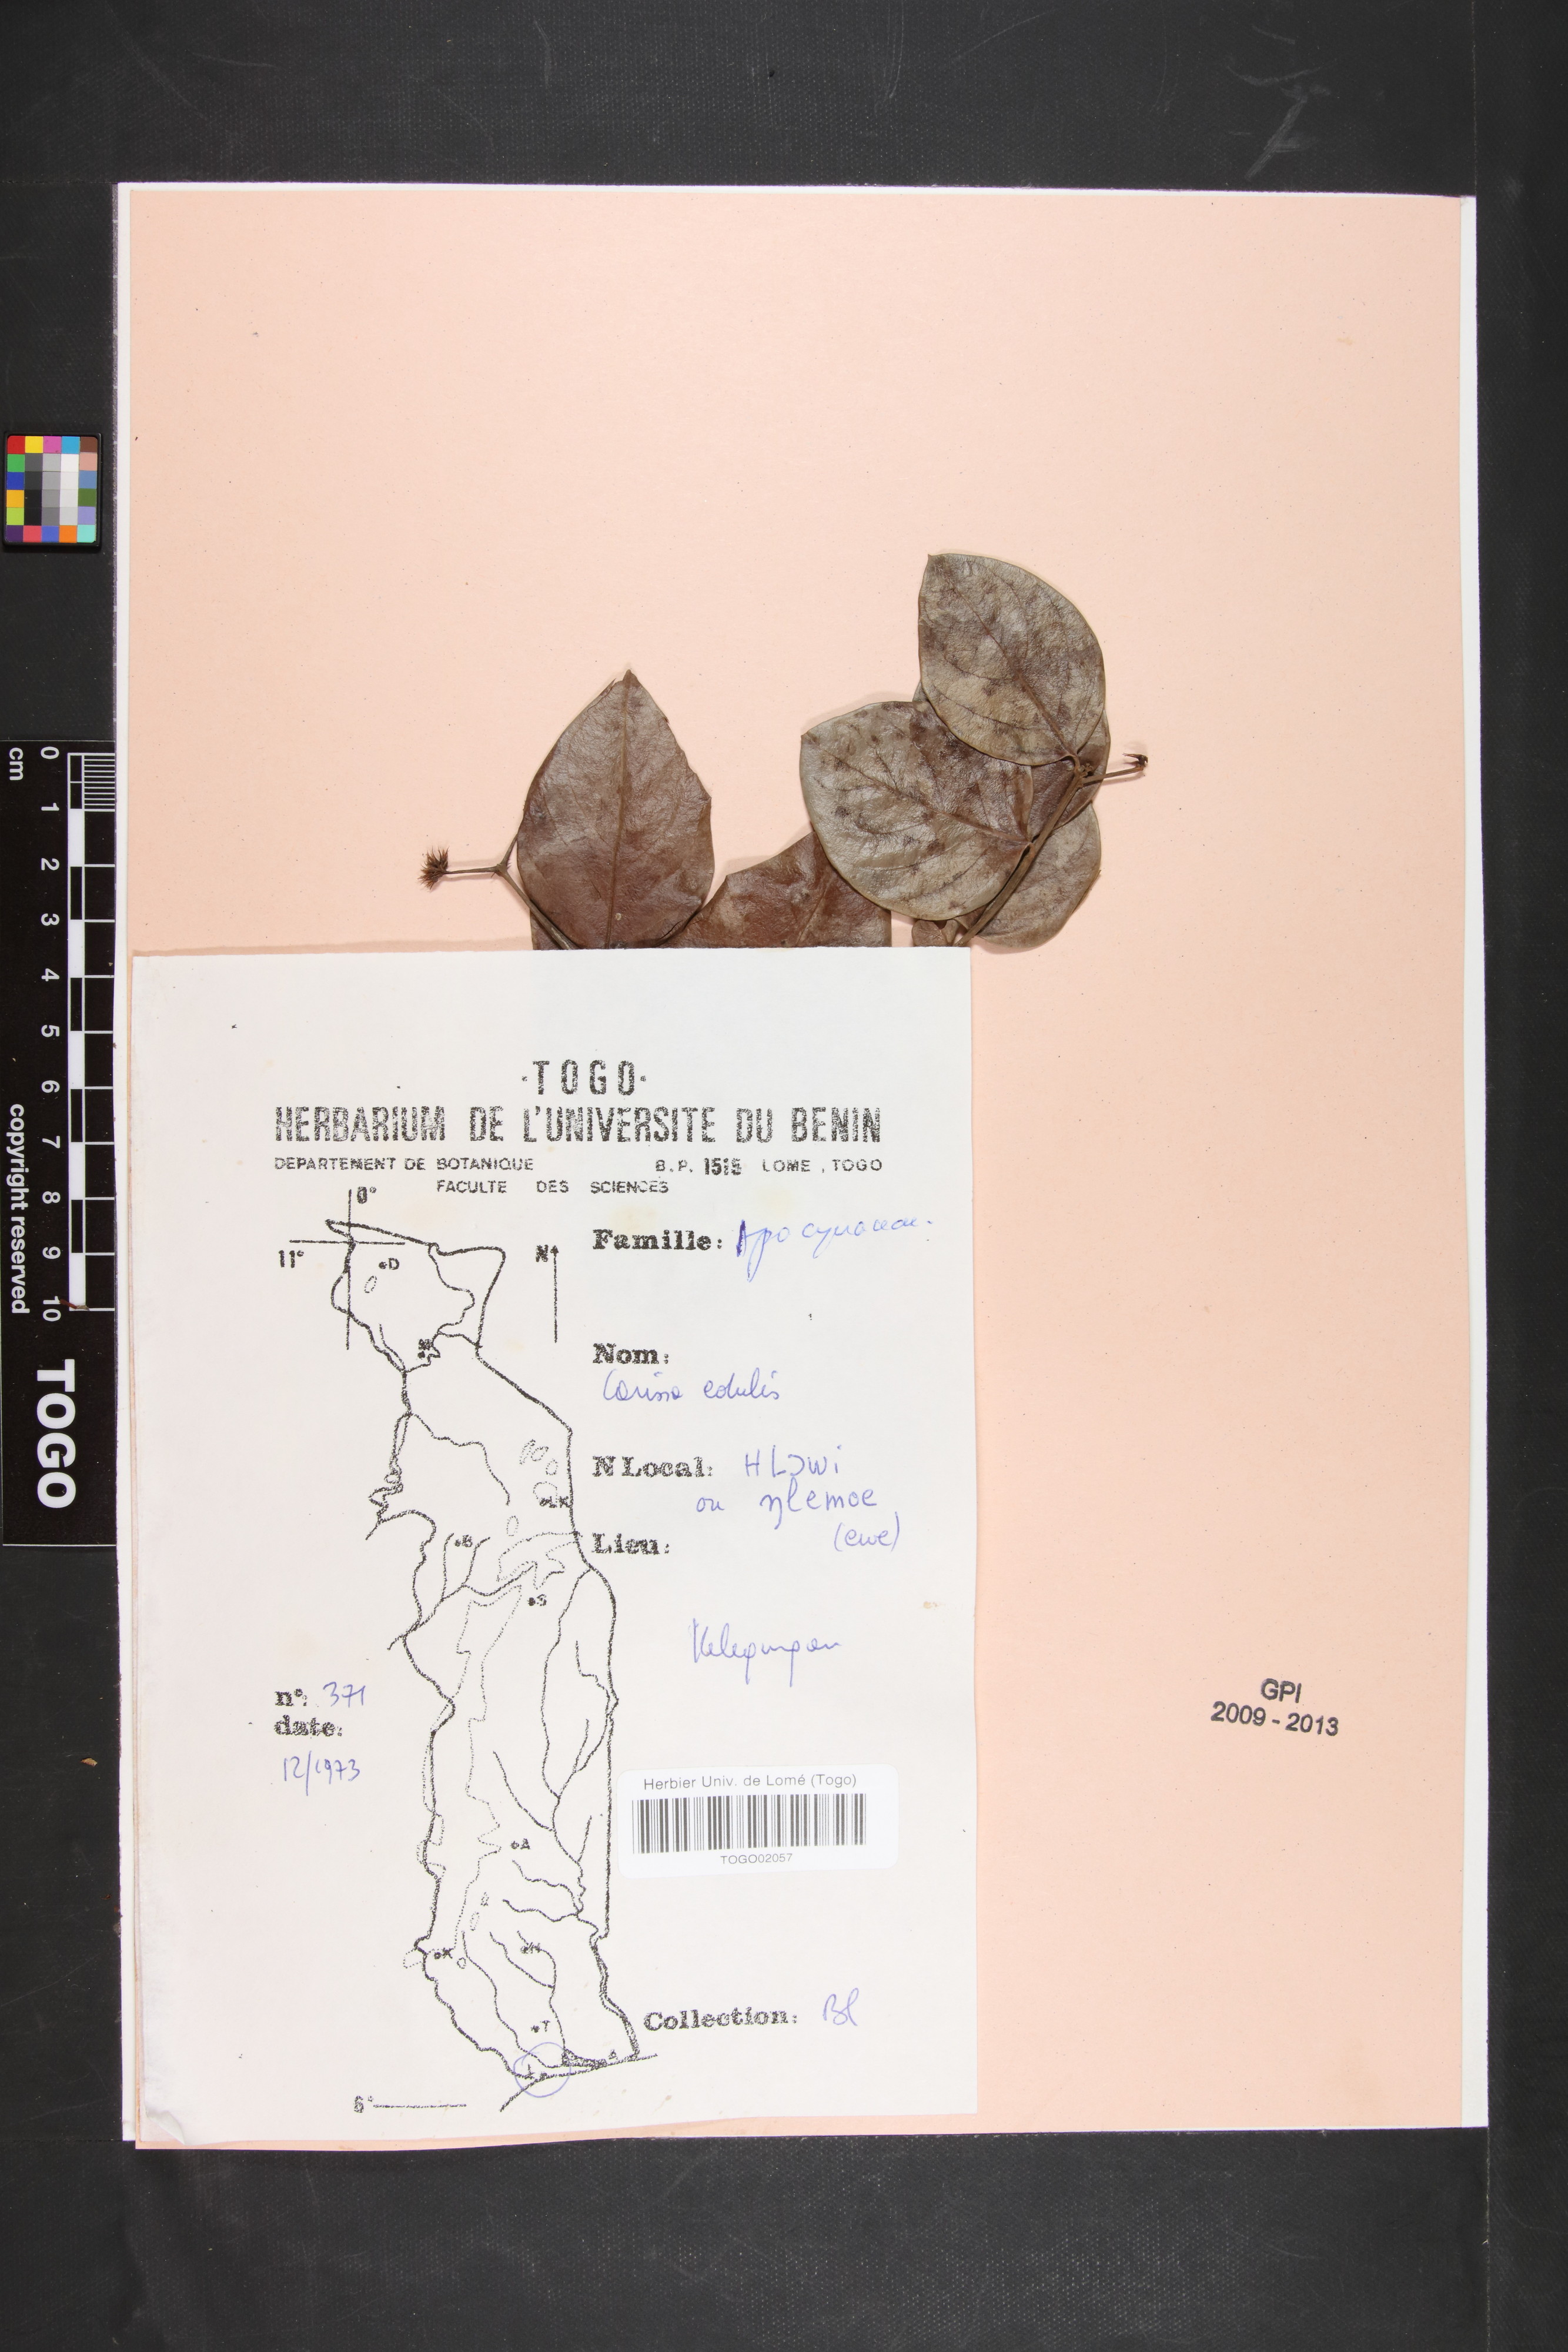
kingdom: Plantae
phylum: Tracheophyta
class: Magnoliopsida
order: Gentianales
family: Apocynaceae
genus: Carissa
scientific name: Carissa spinarum
